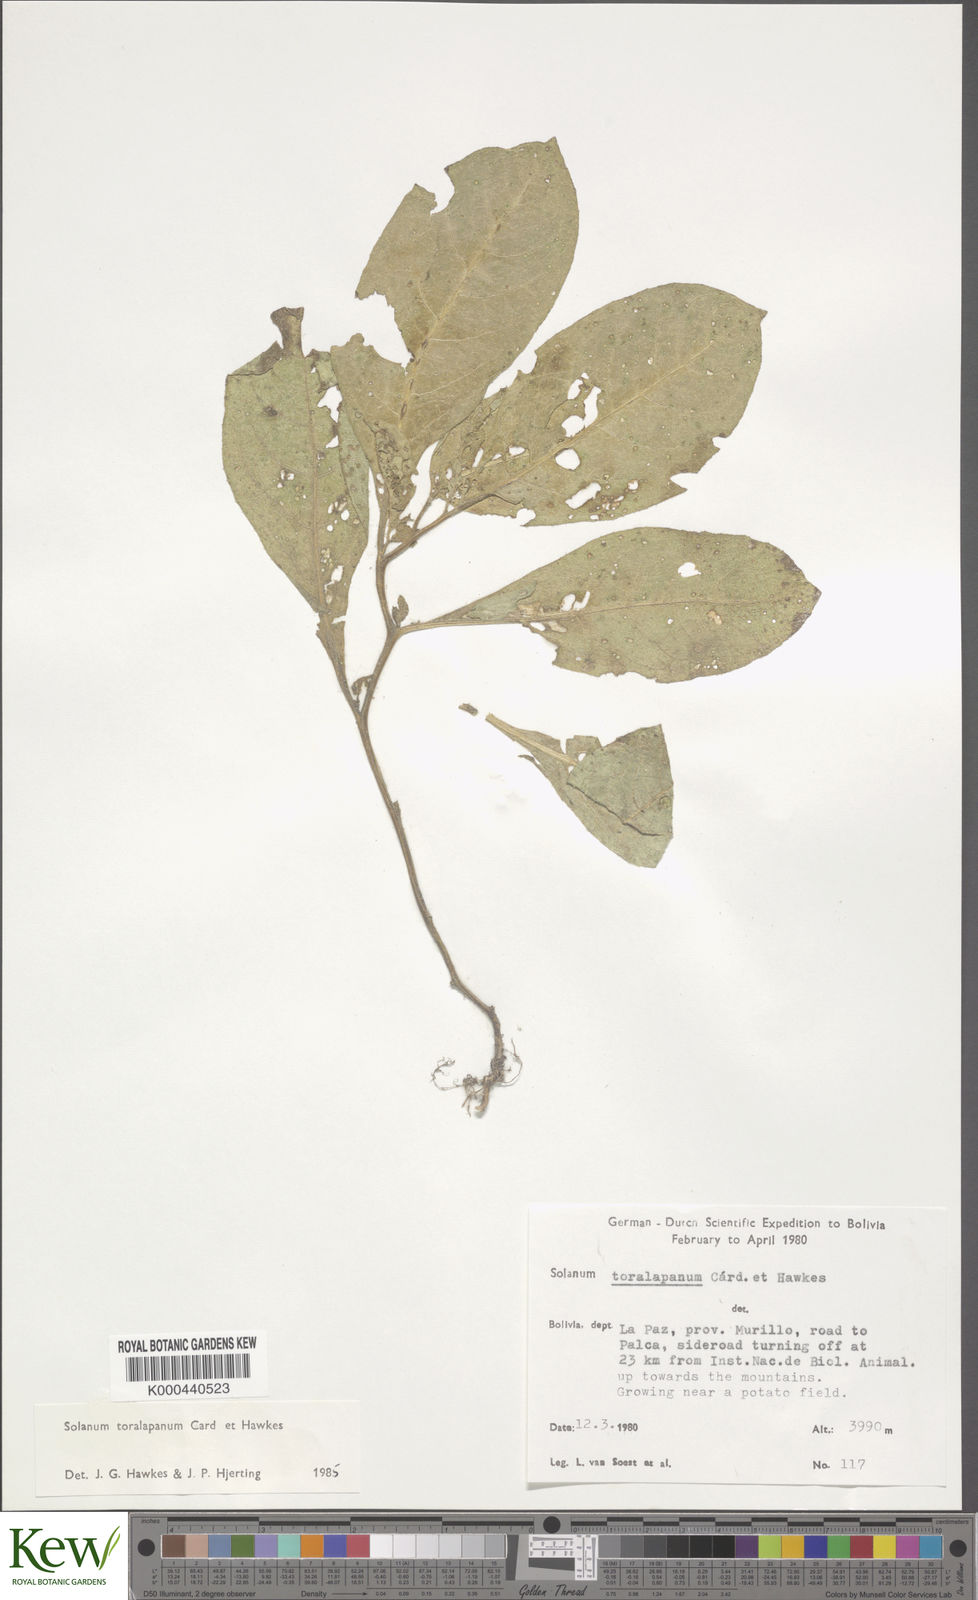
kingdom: Plantae
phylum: Tracheophyta
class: Magnoliopsida
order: Solanales
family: Solanaceae
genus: Solanum
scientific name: Solanum boliviense
